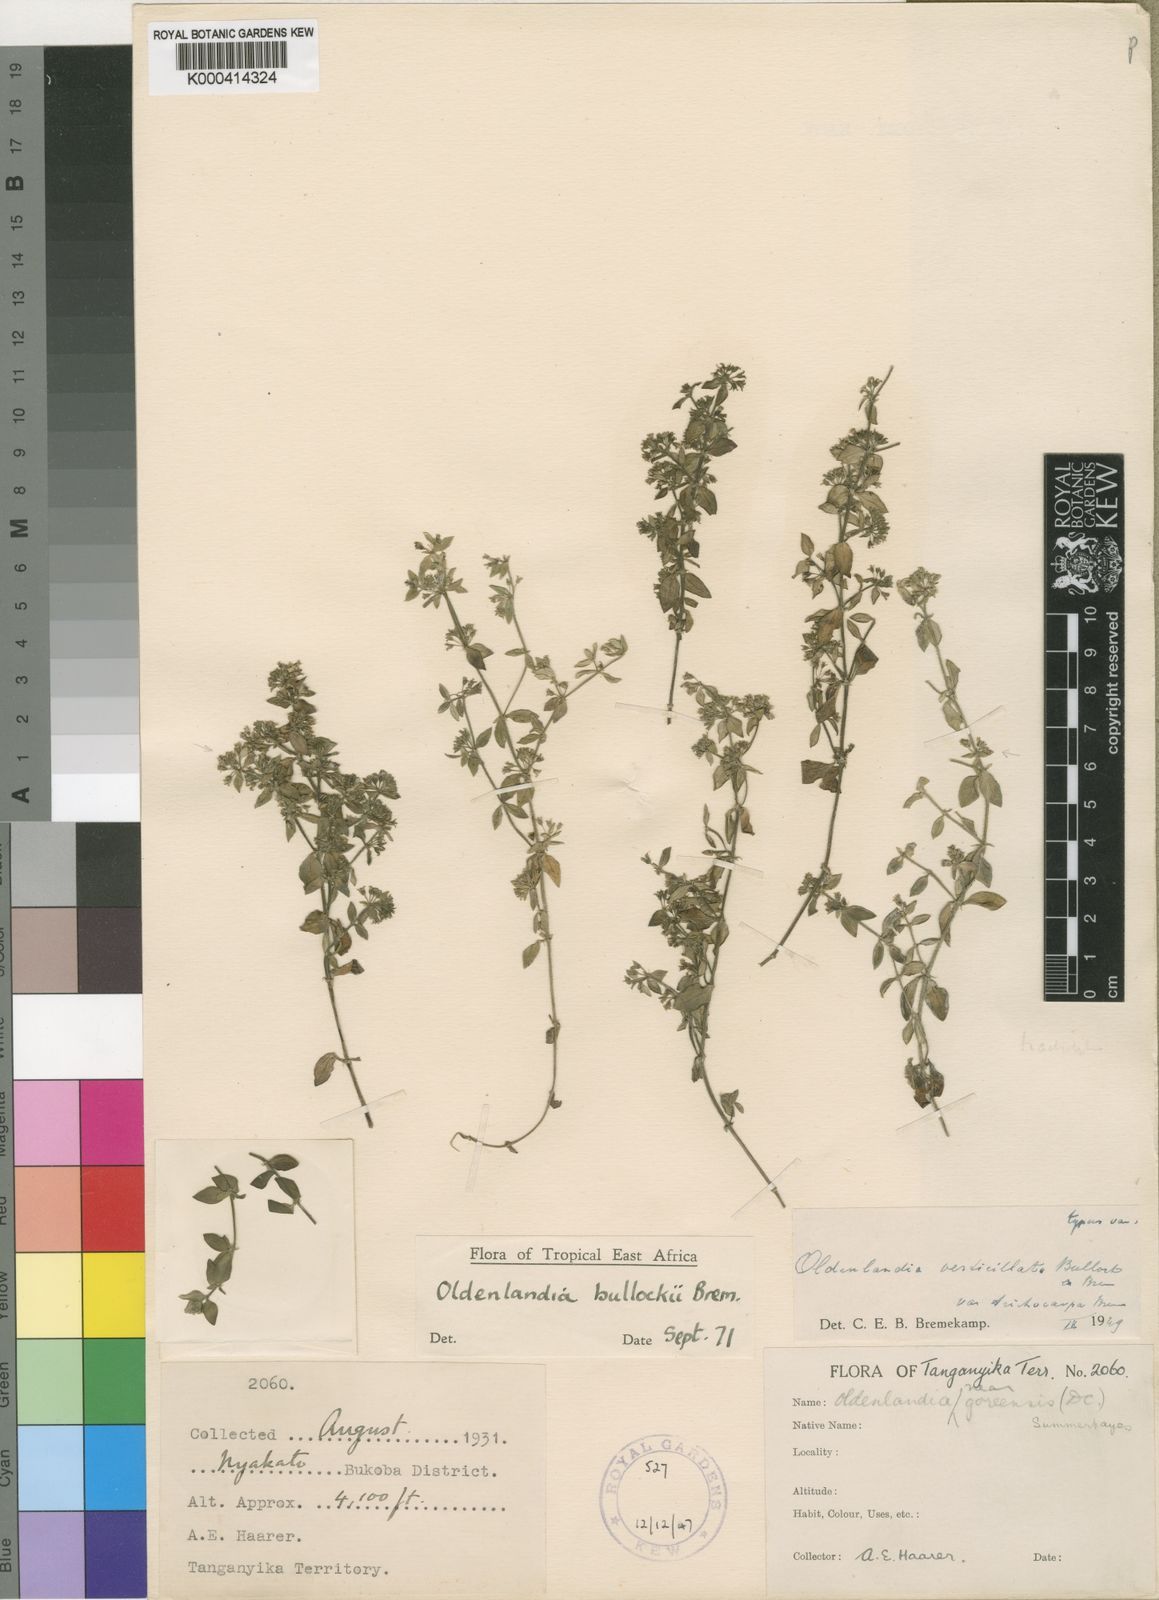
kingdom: Plantae
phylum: Tracheophyta
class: Magnoliopsida
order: Gentianales
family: Rubiaceae
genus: Edrastima
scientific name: Edrastima goreensis
